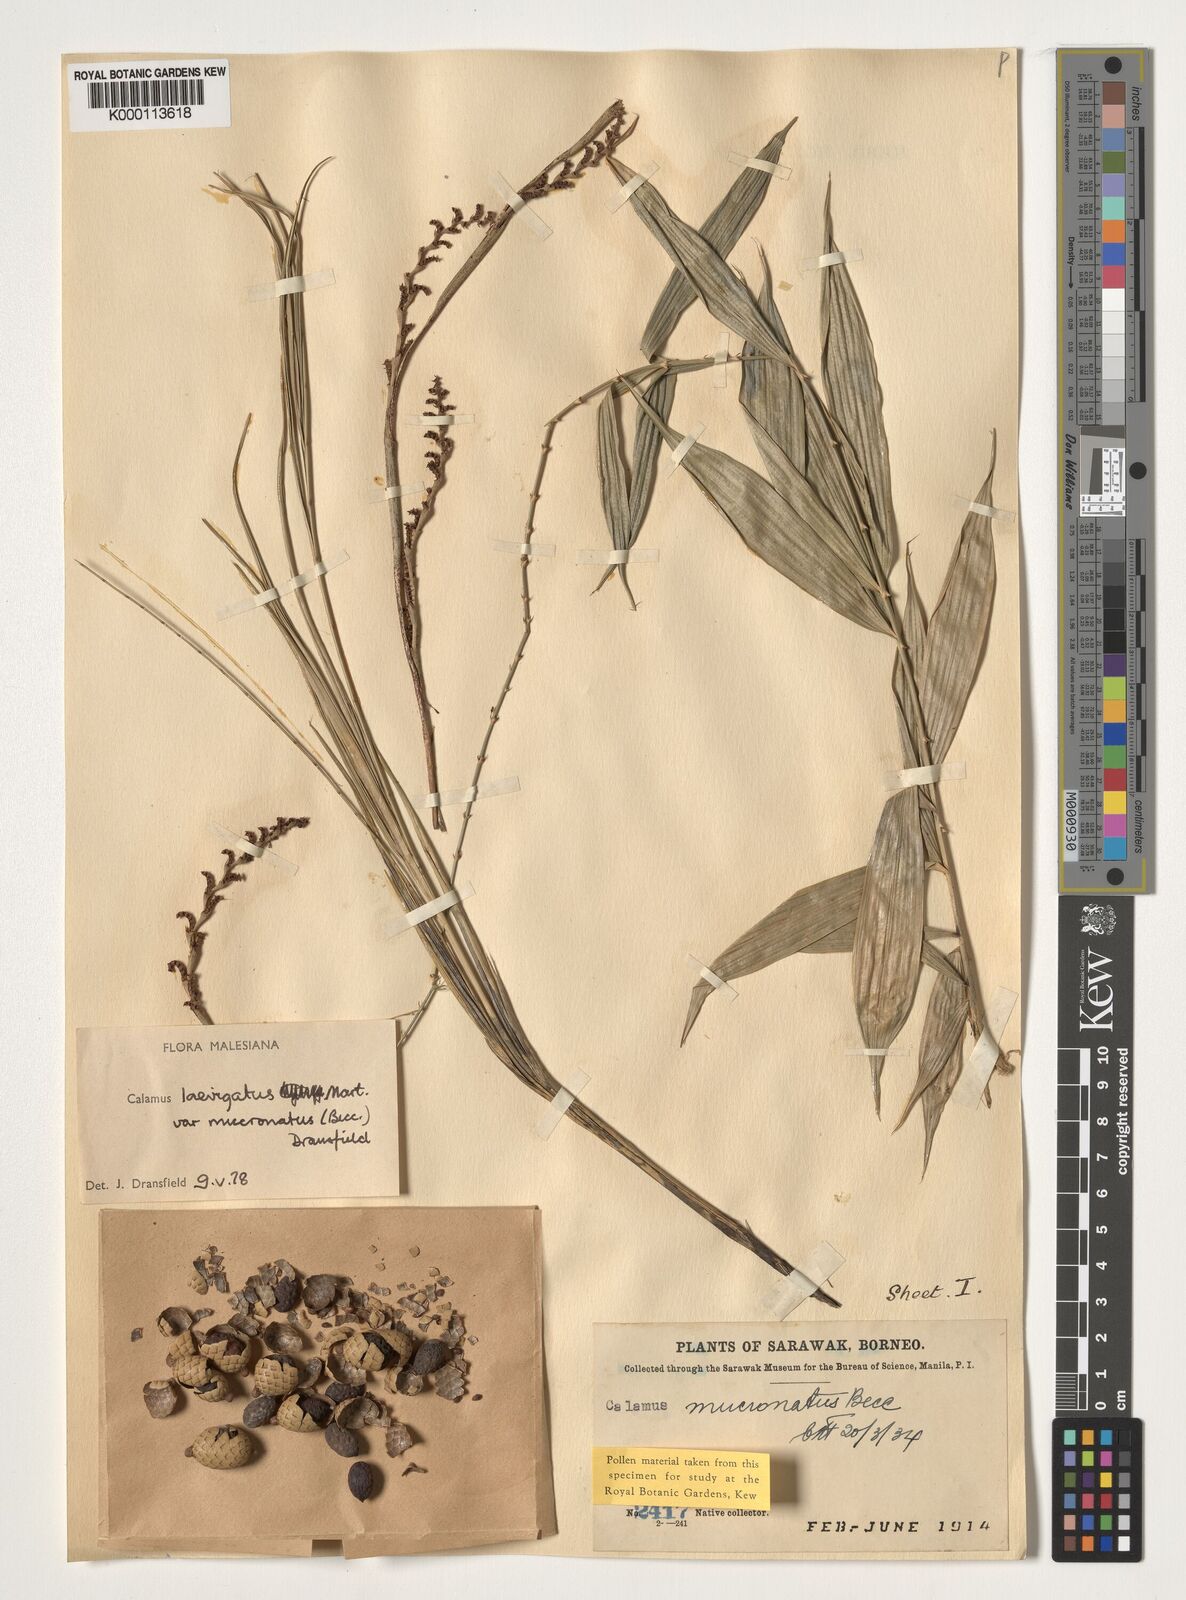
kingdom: Plantae
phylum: Tracheophyta
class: Liliopsida
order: Arecales
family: Arecaceae
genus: Calamus
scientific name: Calamus plicatus
